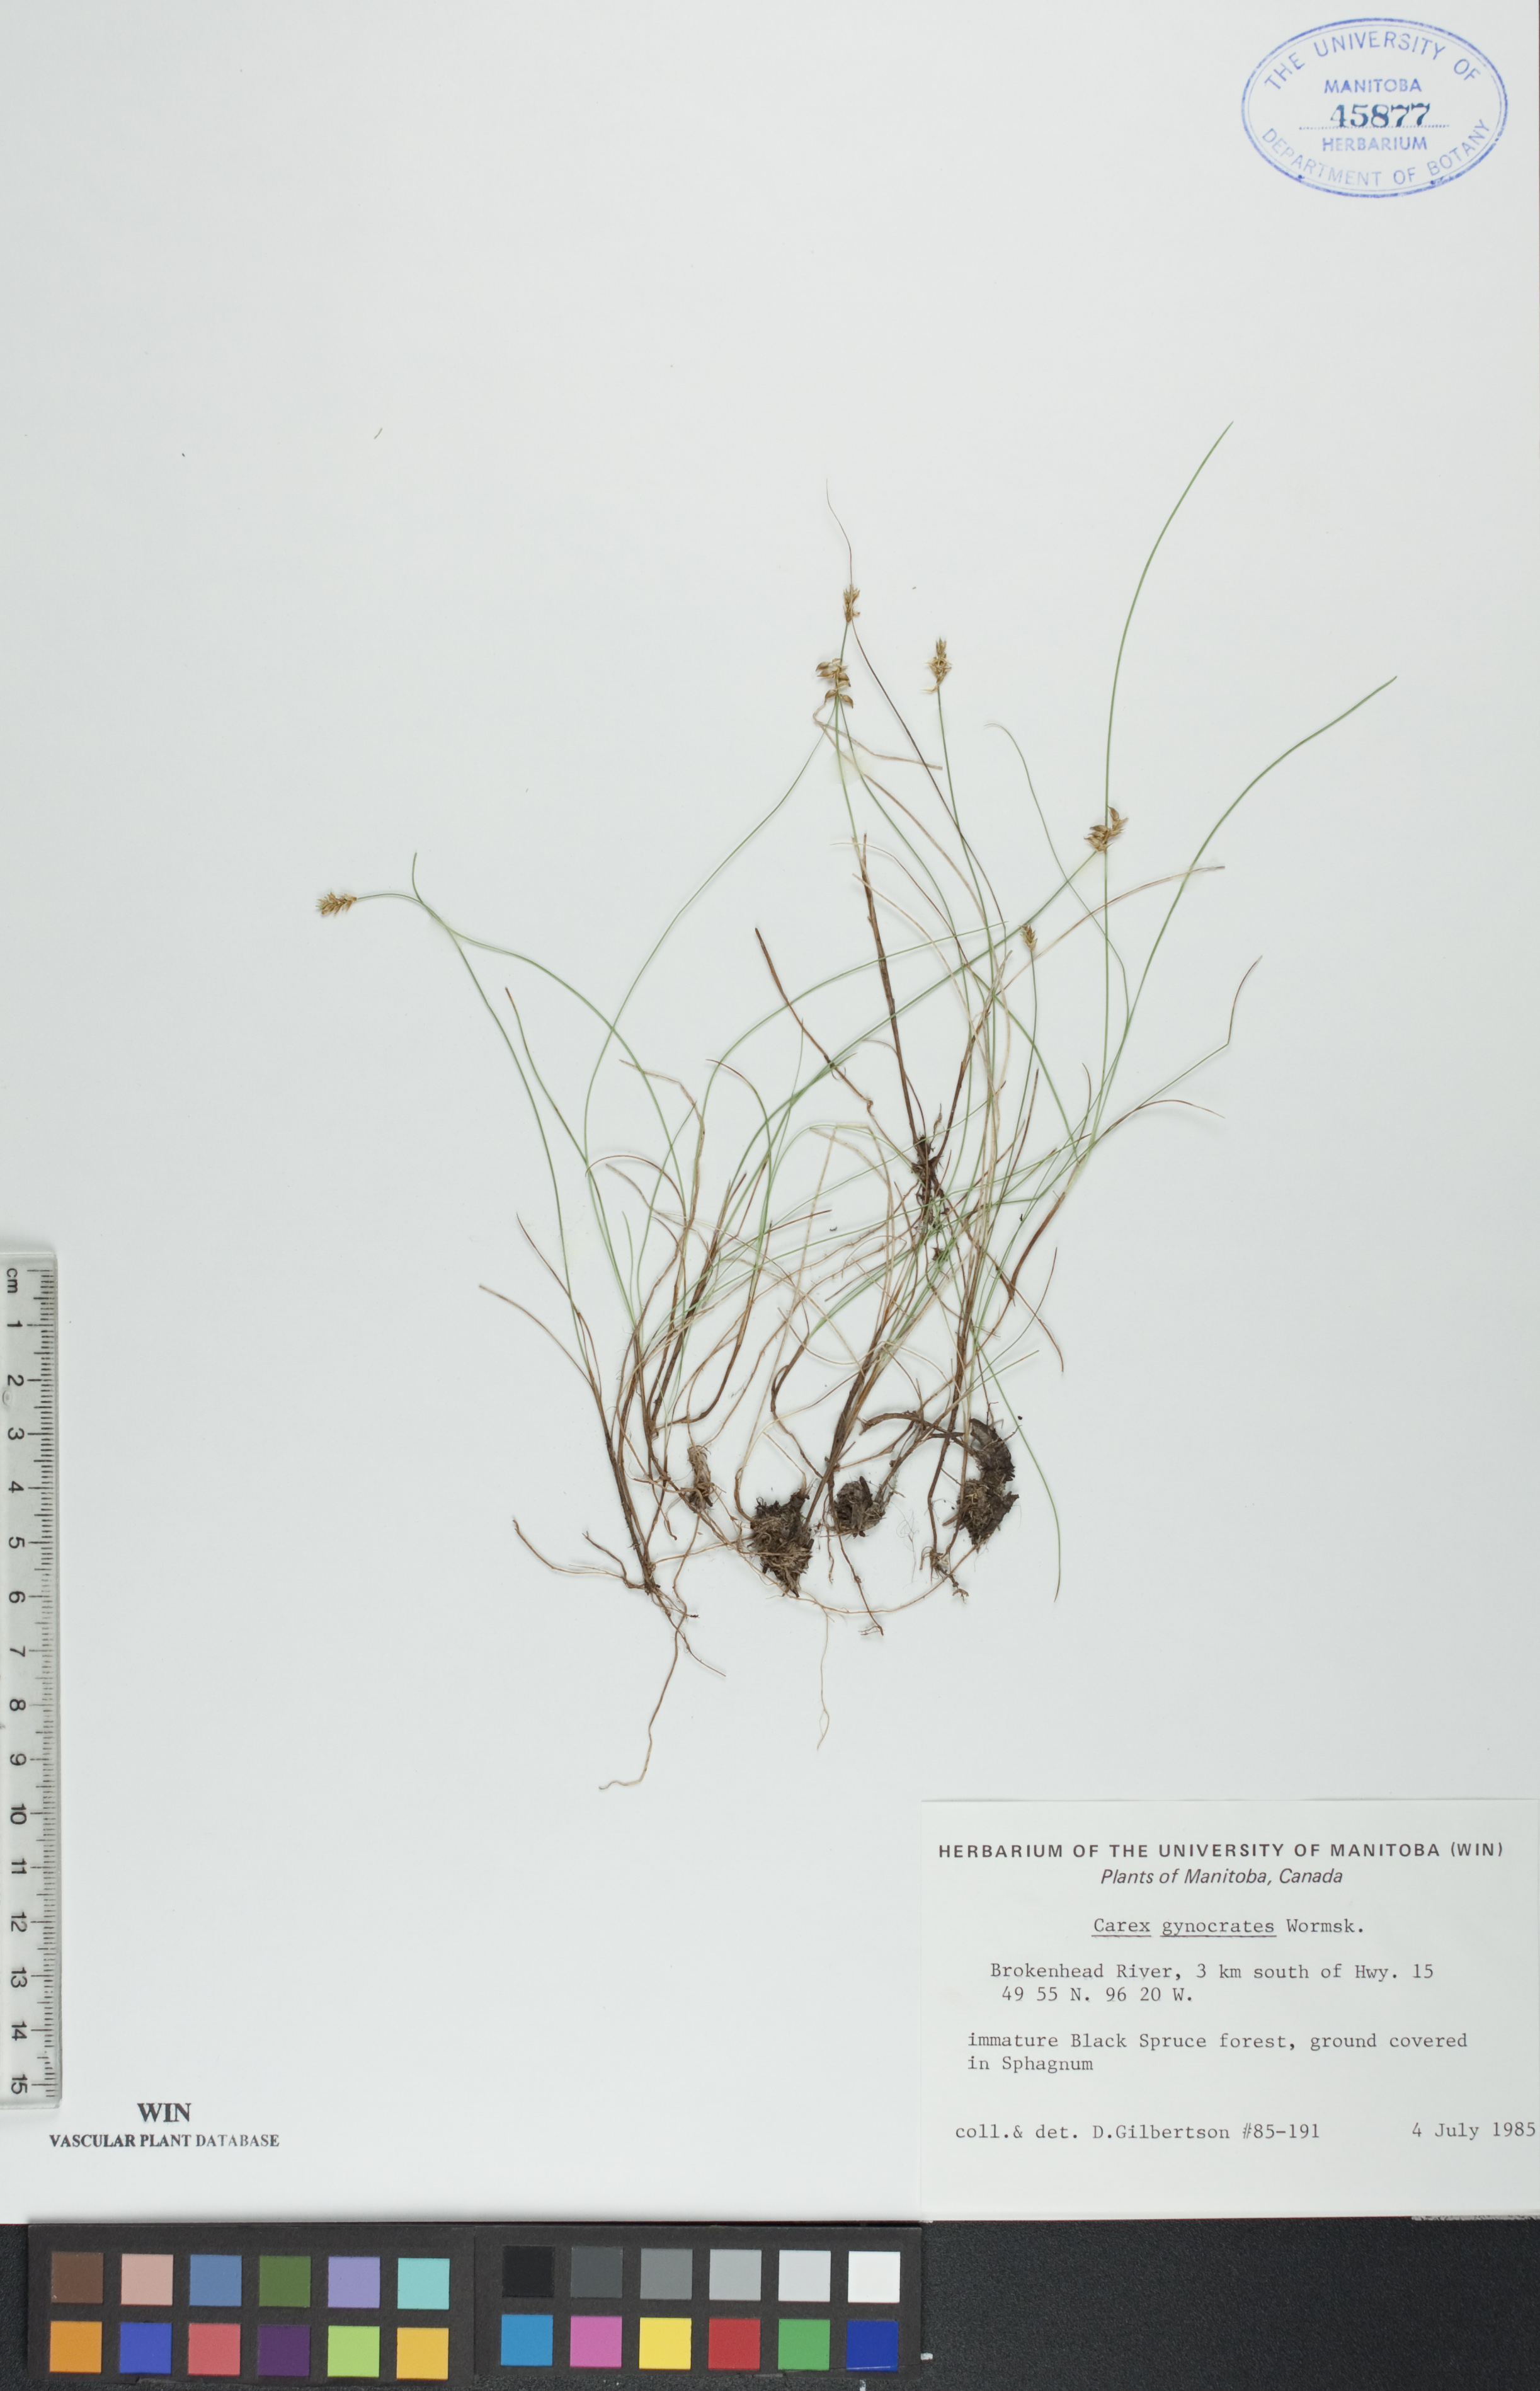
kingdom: Plantae
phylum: Tracheophyta
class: Liliopsida
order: Poales
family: Cyperaceae
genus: Carex
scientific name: Carex nardina
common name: Nard sedge
